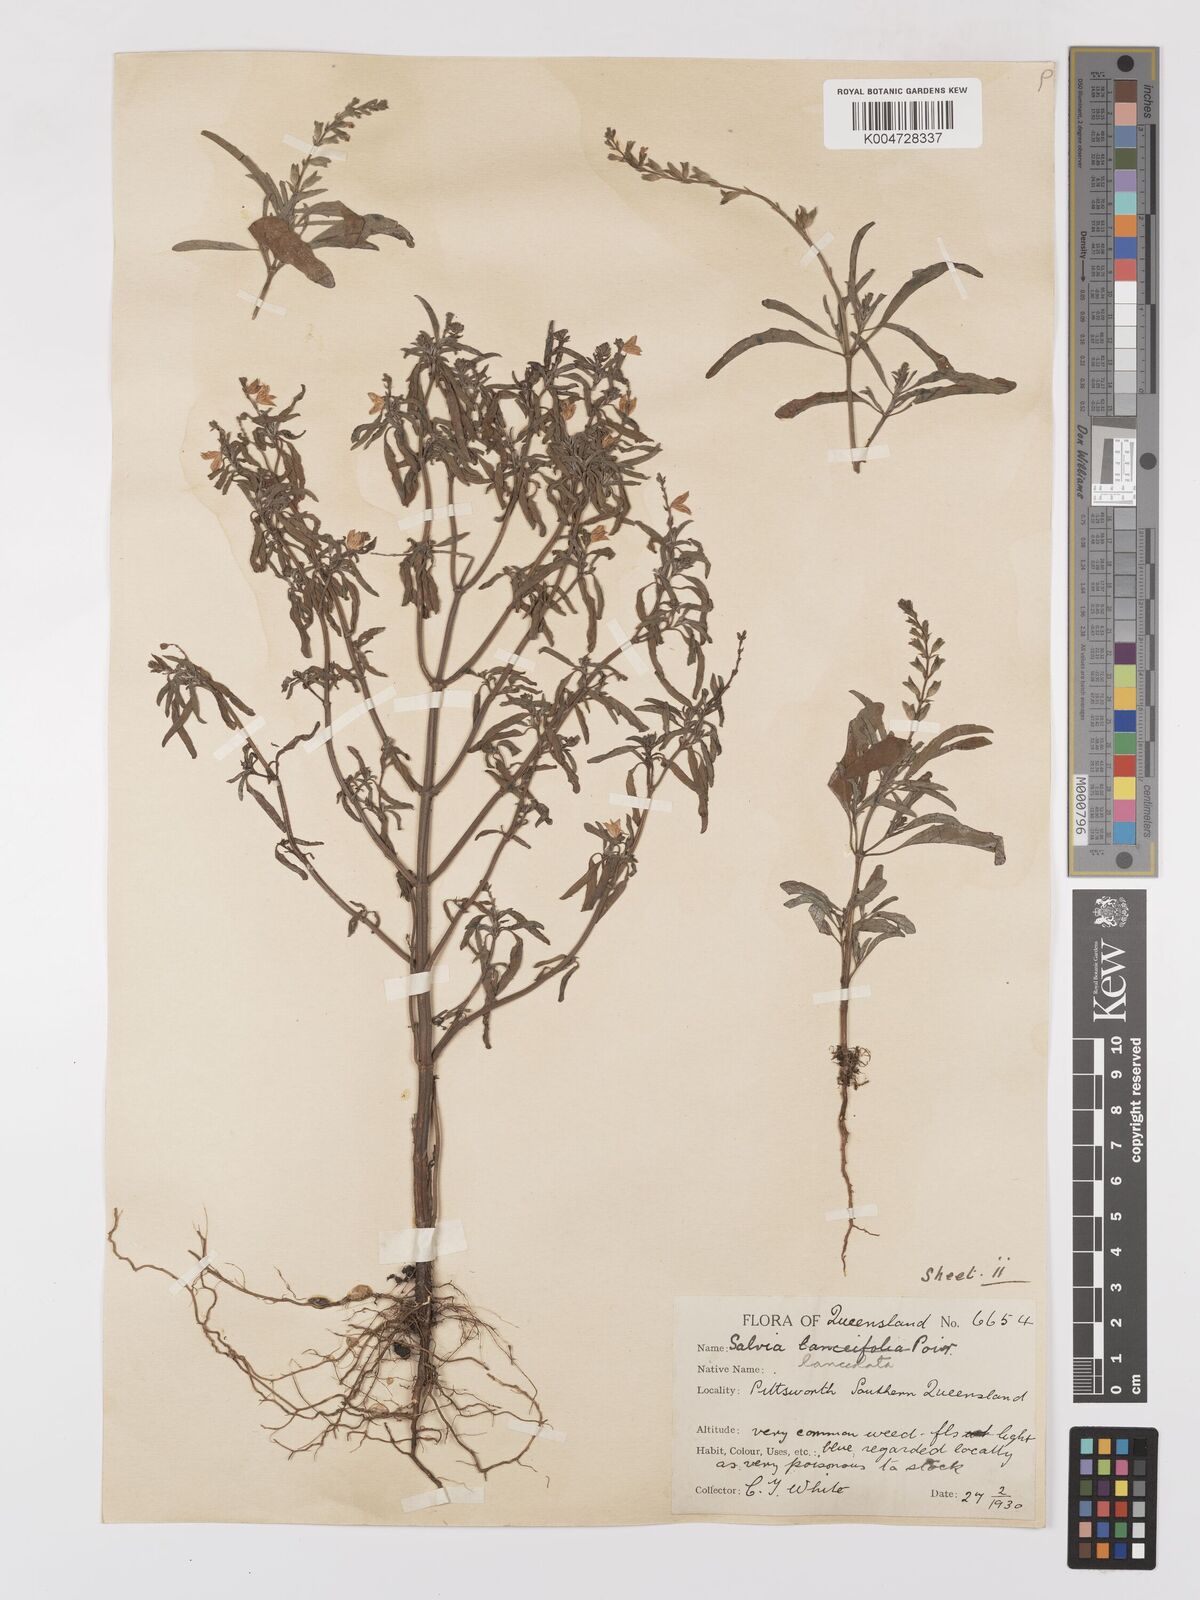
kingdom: Plantae
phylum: Tracheophyta
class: Magnoliopsida
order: Lamiales
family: Lamiaceae
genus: Salvia
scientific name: Salvia reflexa
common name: Mintweed
